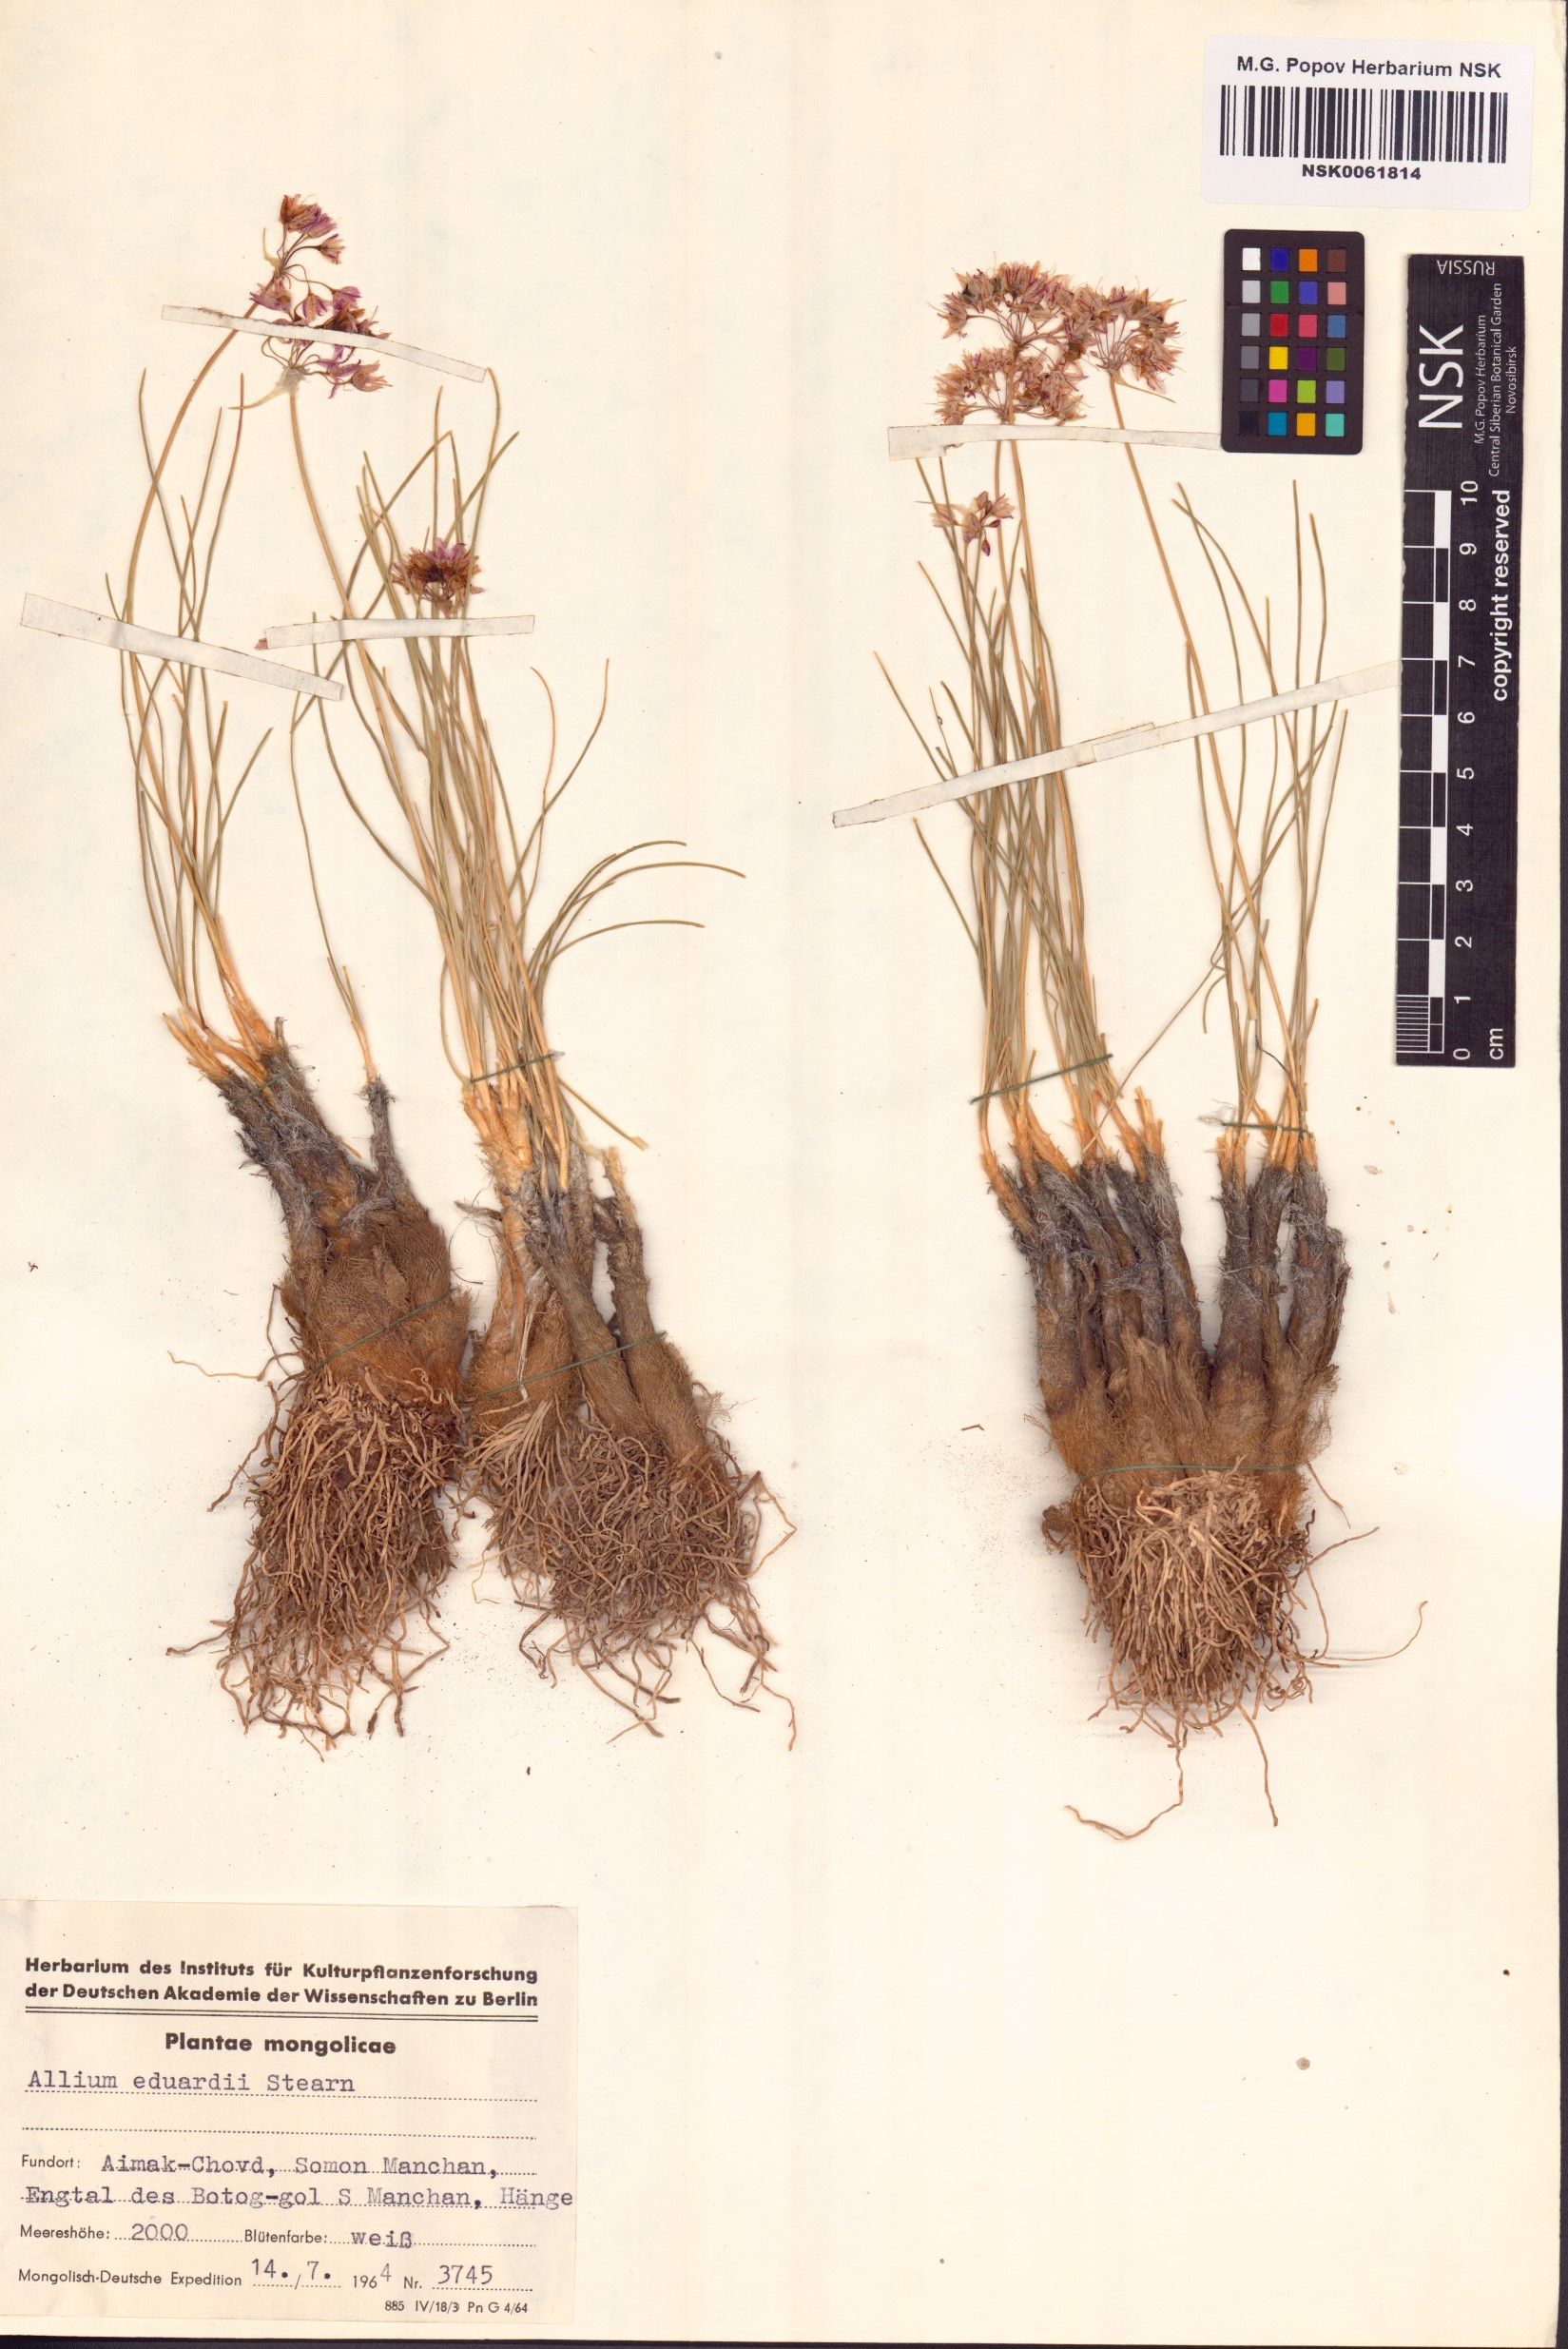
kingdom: Plantae
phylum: Tracheophyta
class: Liliopsida
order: Asparagales
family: Amaryllidaceae
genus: Allium
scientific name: Allium eduardi
